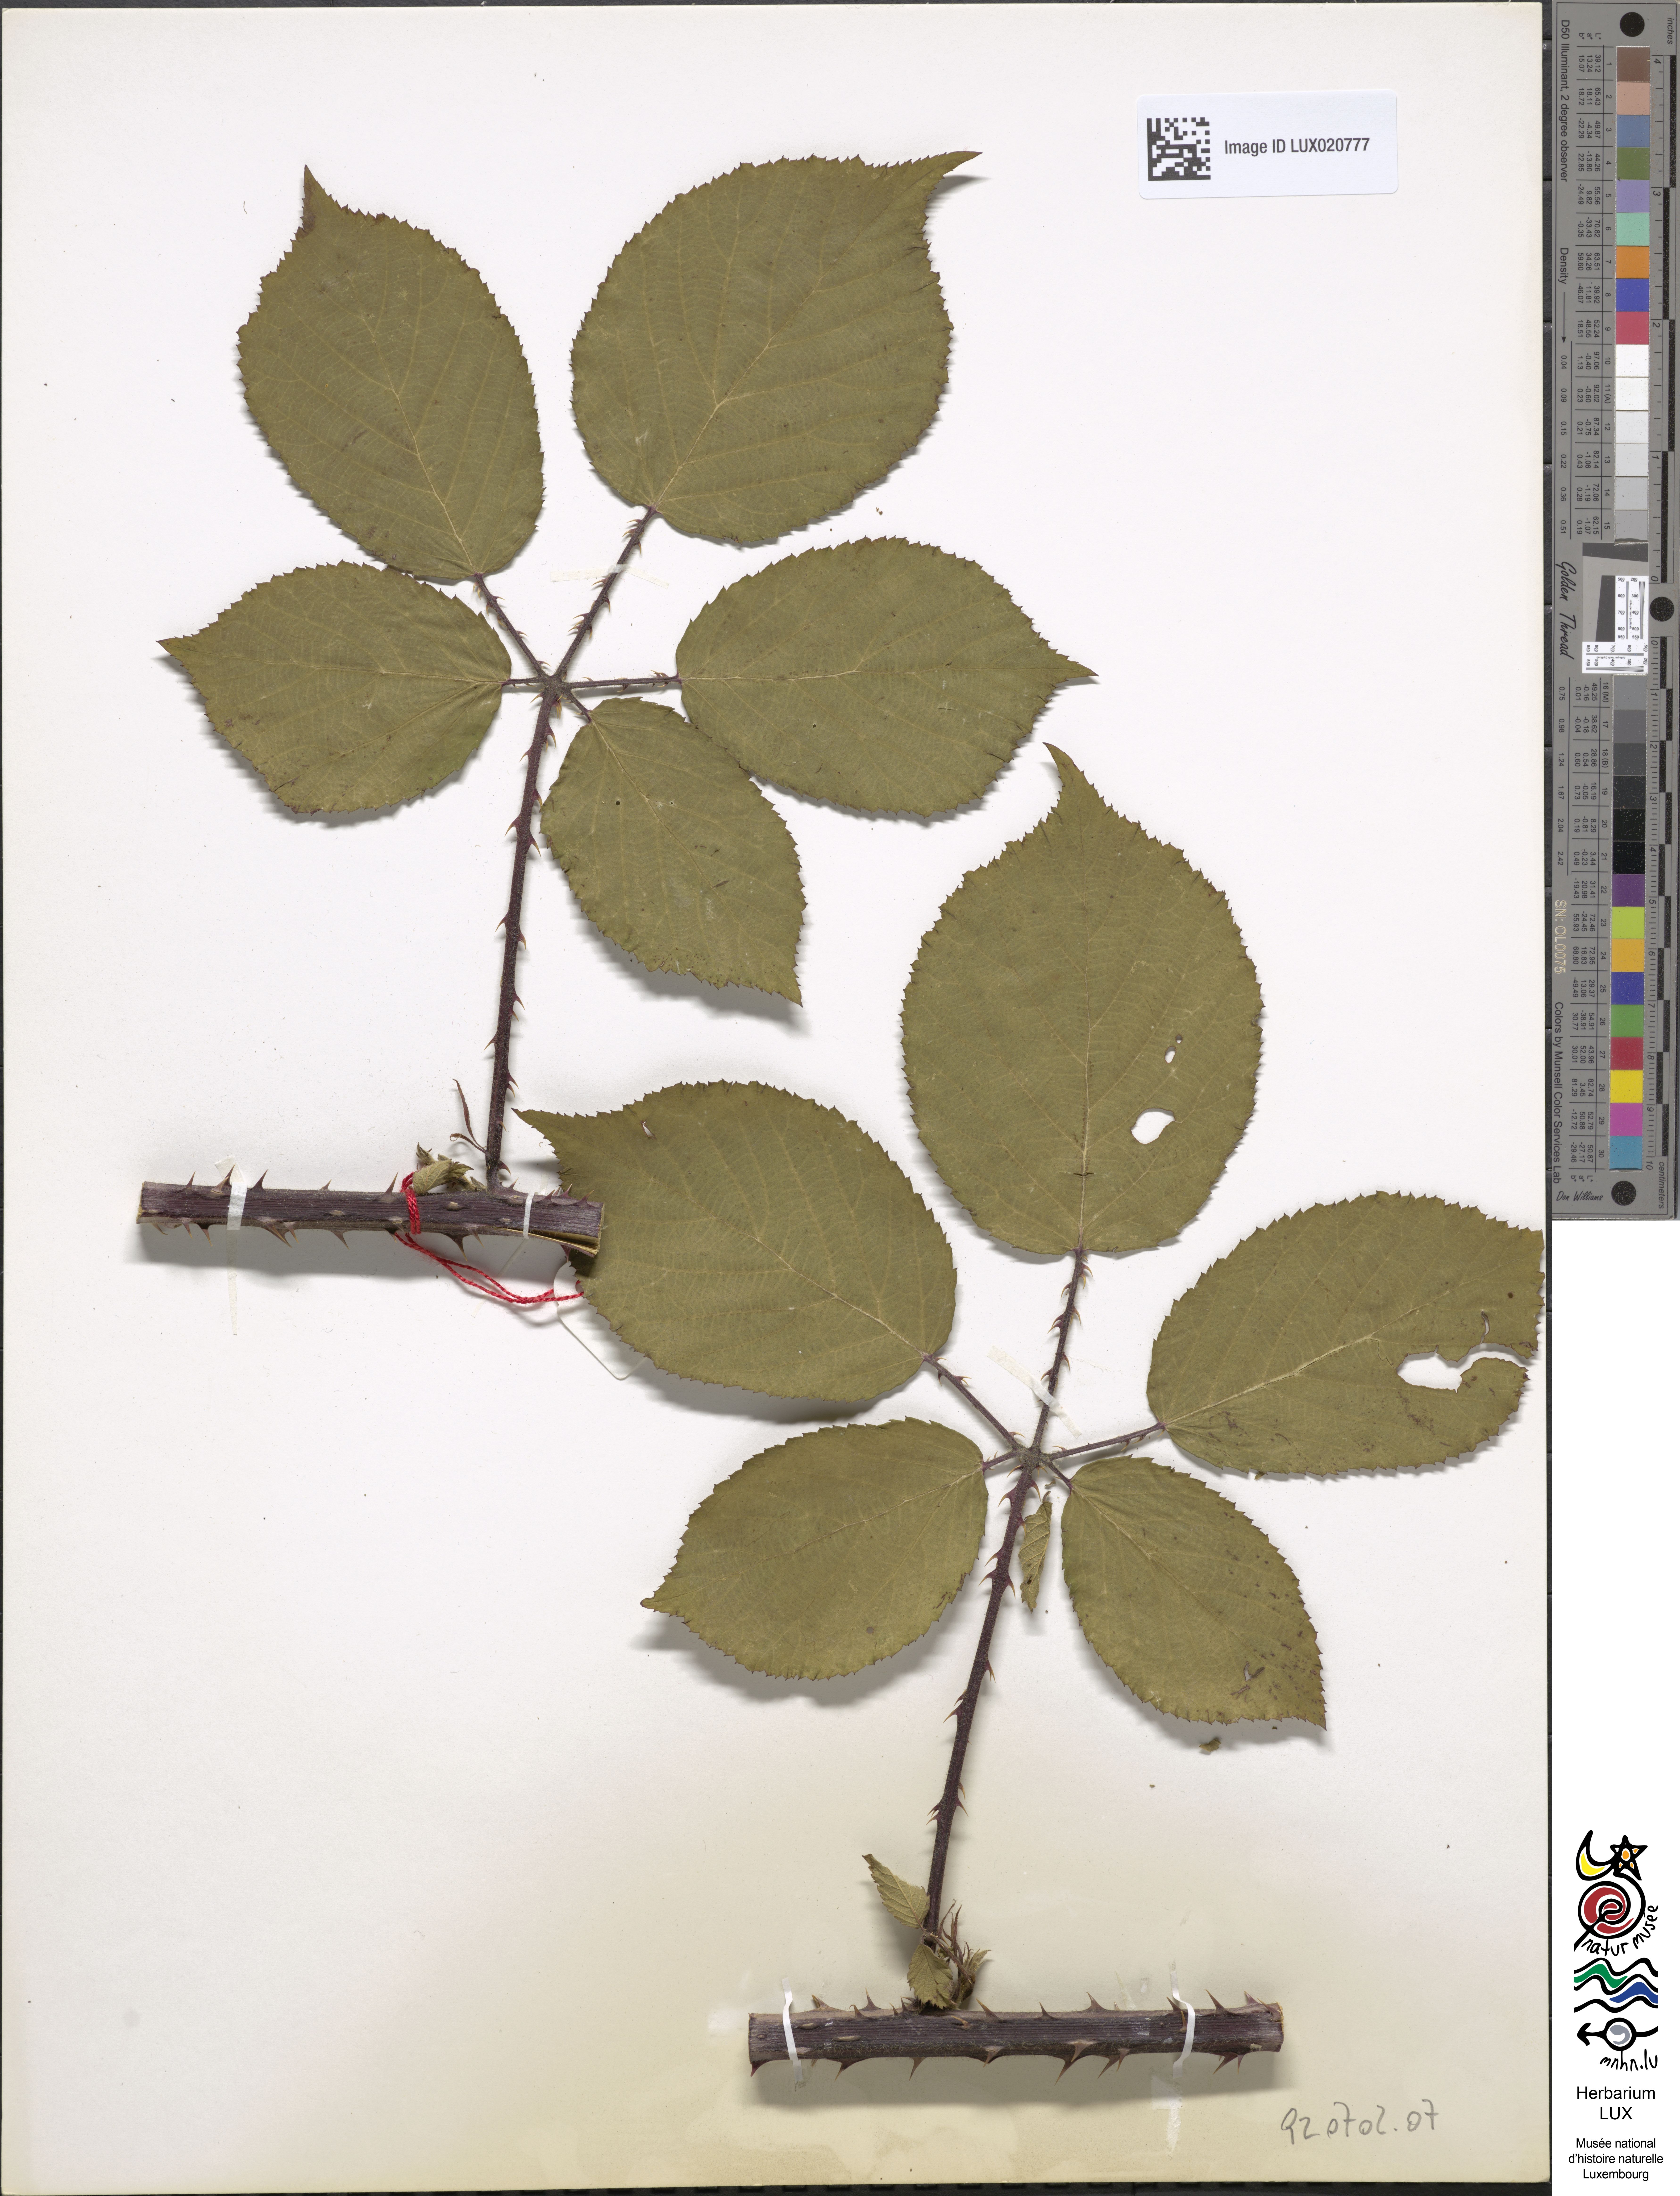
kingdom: Plantae
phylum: Tracheophyta
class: Magnoliopsida
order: Rosales
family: Rosaceae
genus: Rubus
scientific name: Rubus dechenii
